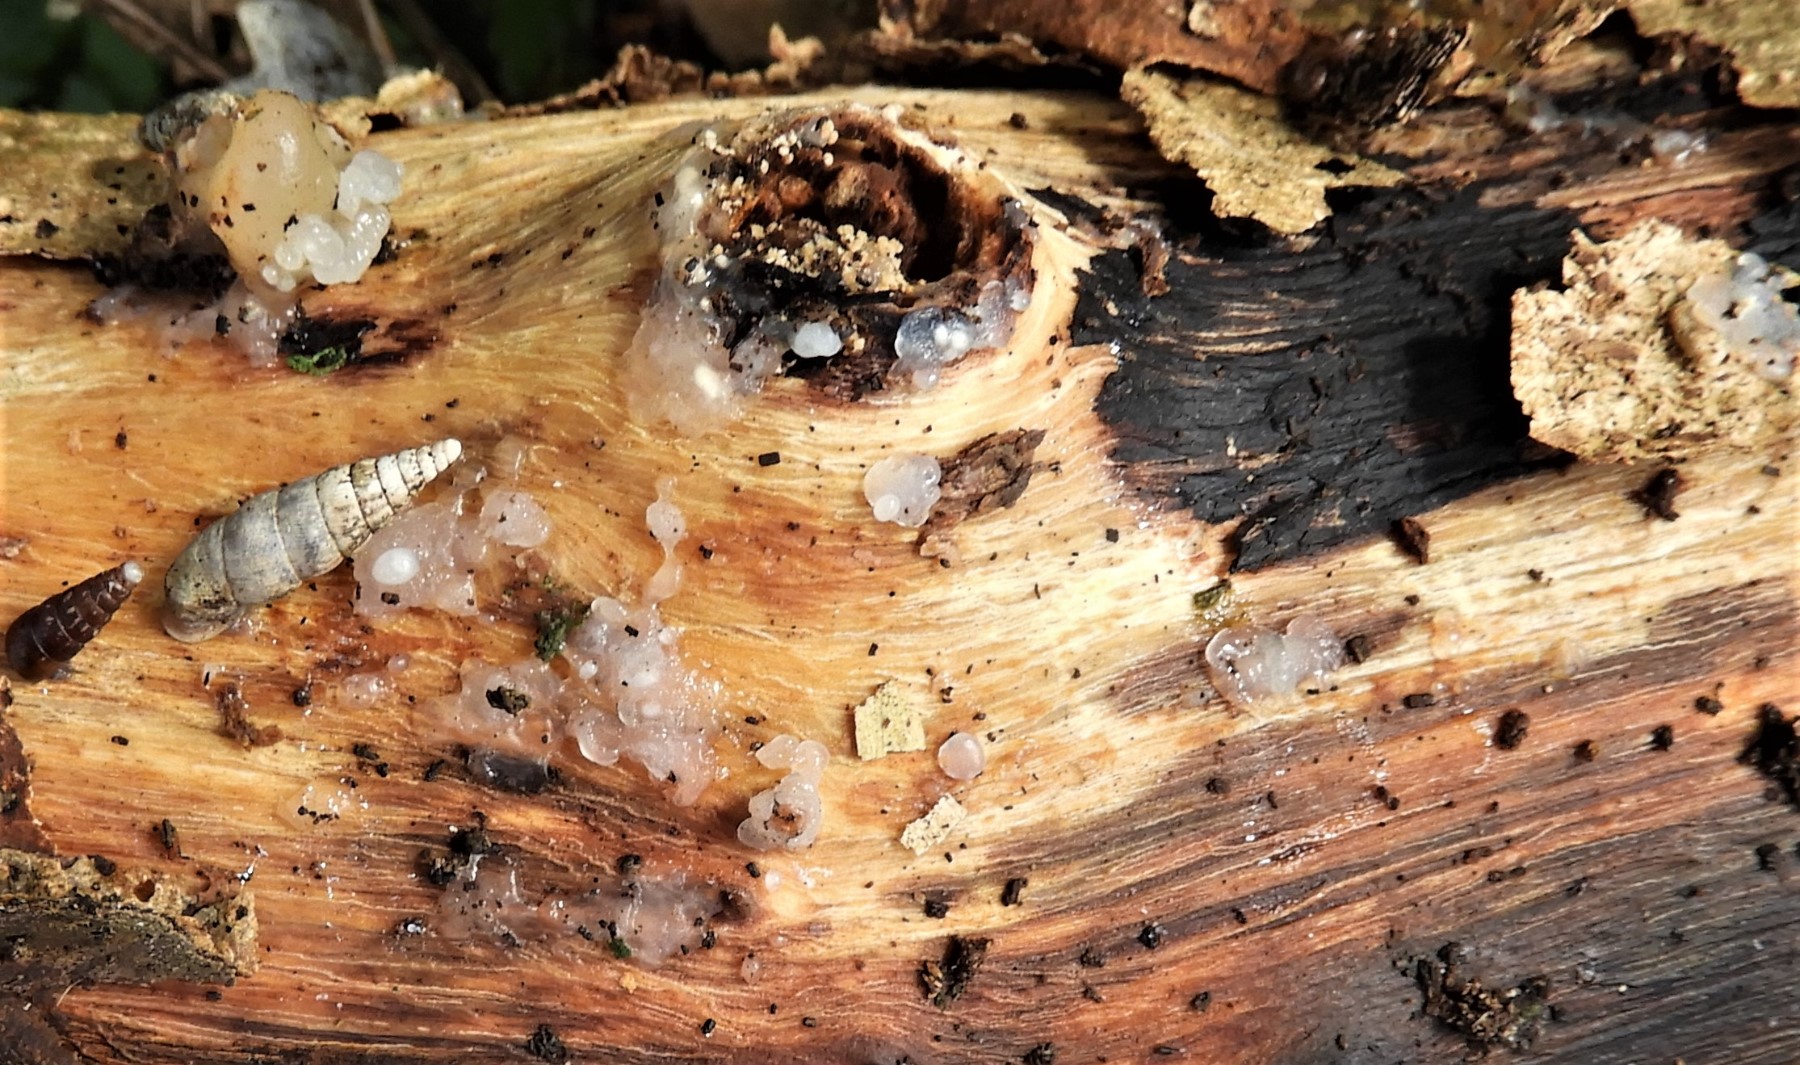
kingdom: Fungi
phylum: Basidiomycota
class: Agaricomycetes
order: Auriculariales
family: Hyaloriaceae
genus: Myxarium
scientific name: Myxarium nucleatum
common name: klar bævretop
